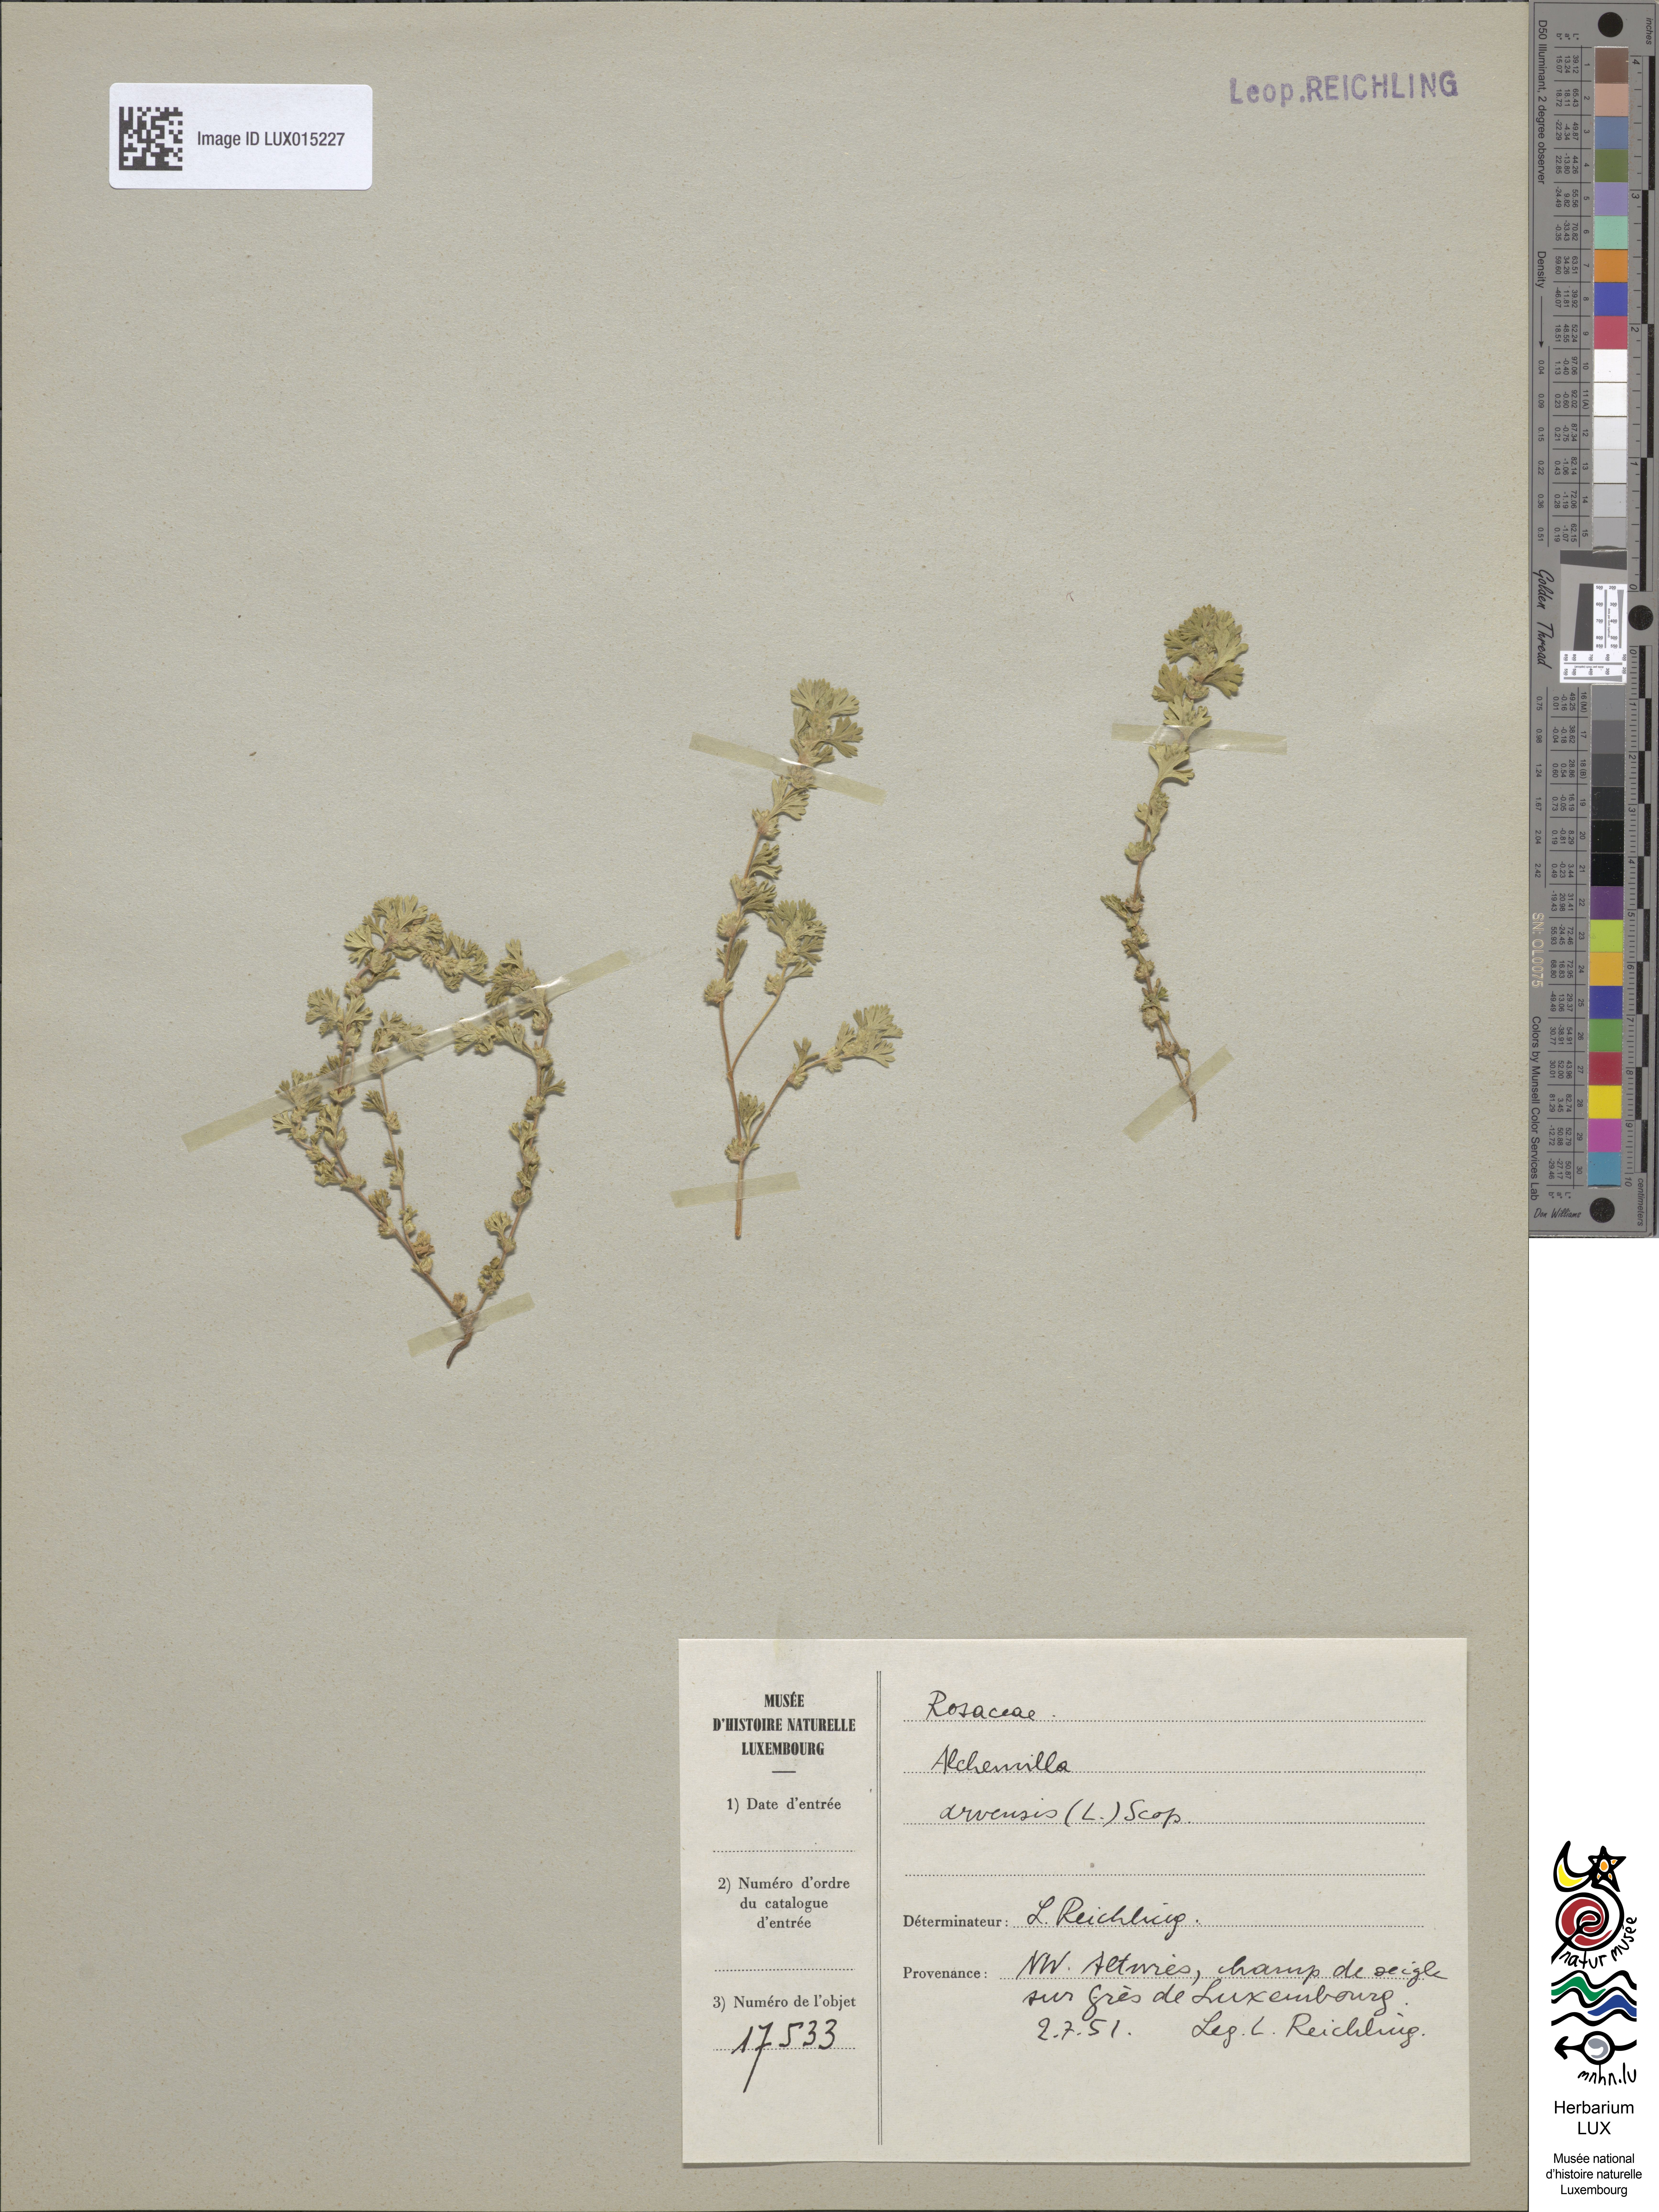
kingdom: Plantae
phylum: Tracheophyta
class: Magnoliopsida
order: Rosales
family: Rosaceae
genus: Aphanes
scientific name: Aphanes arvensis
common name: Parsley-piert
